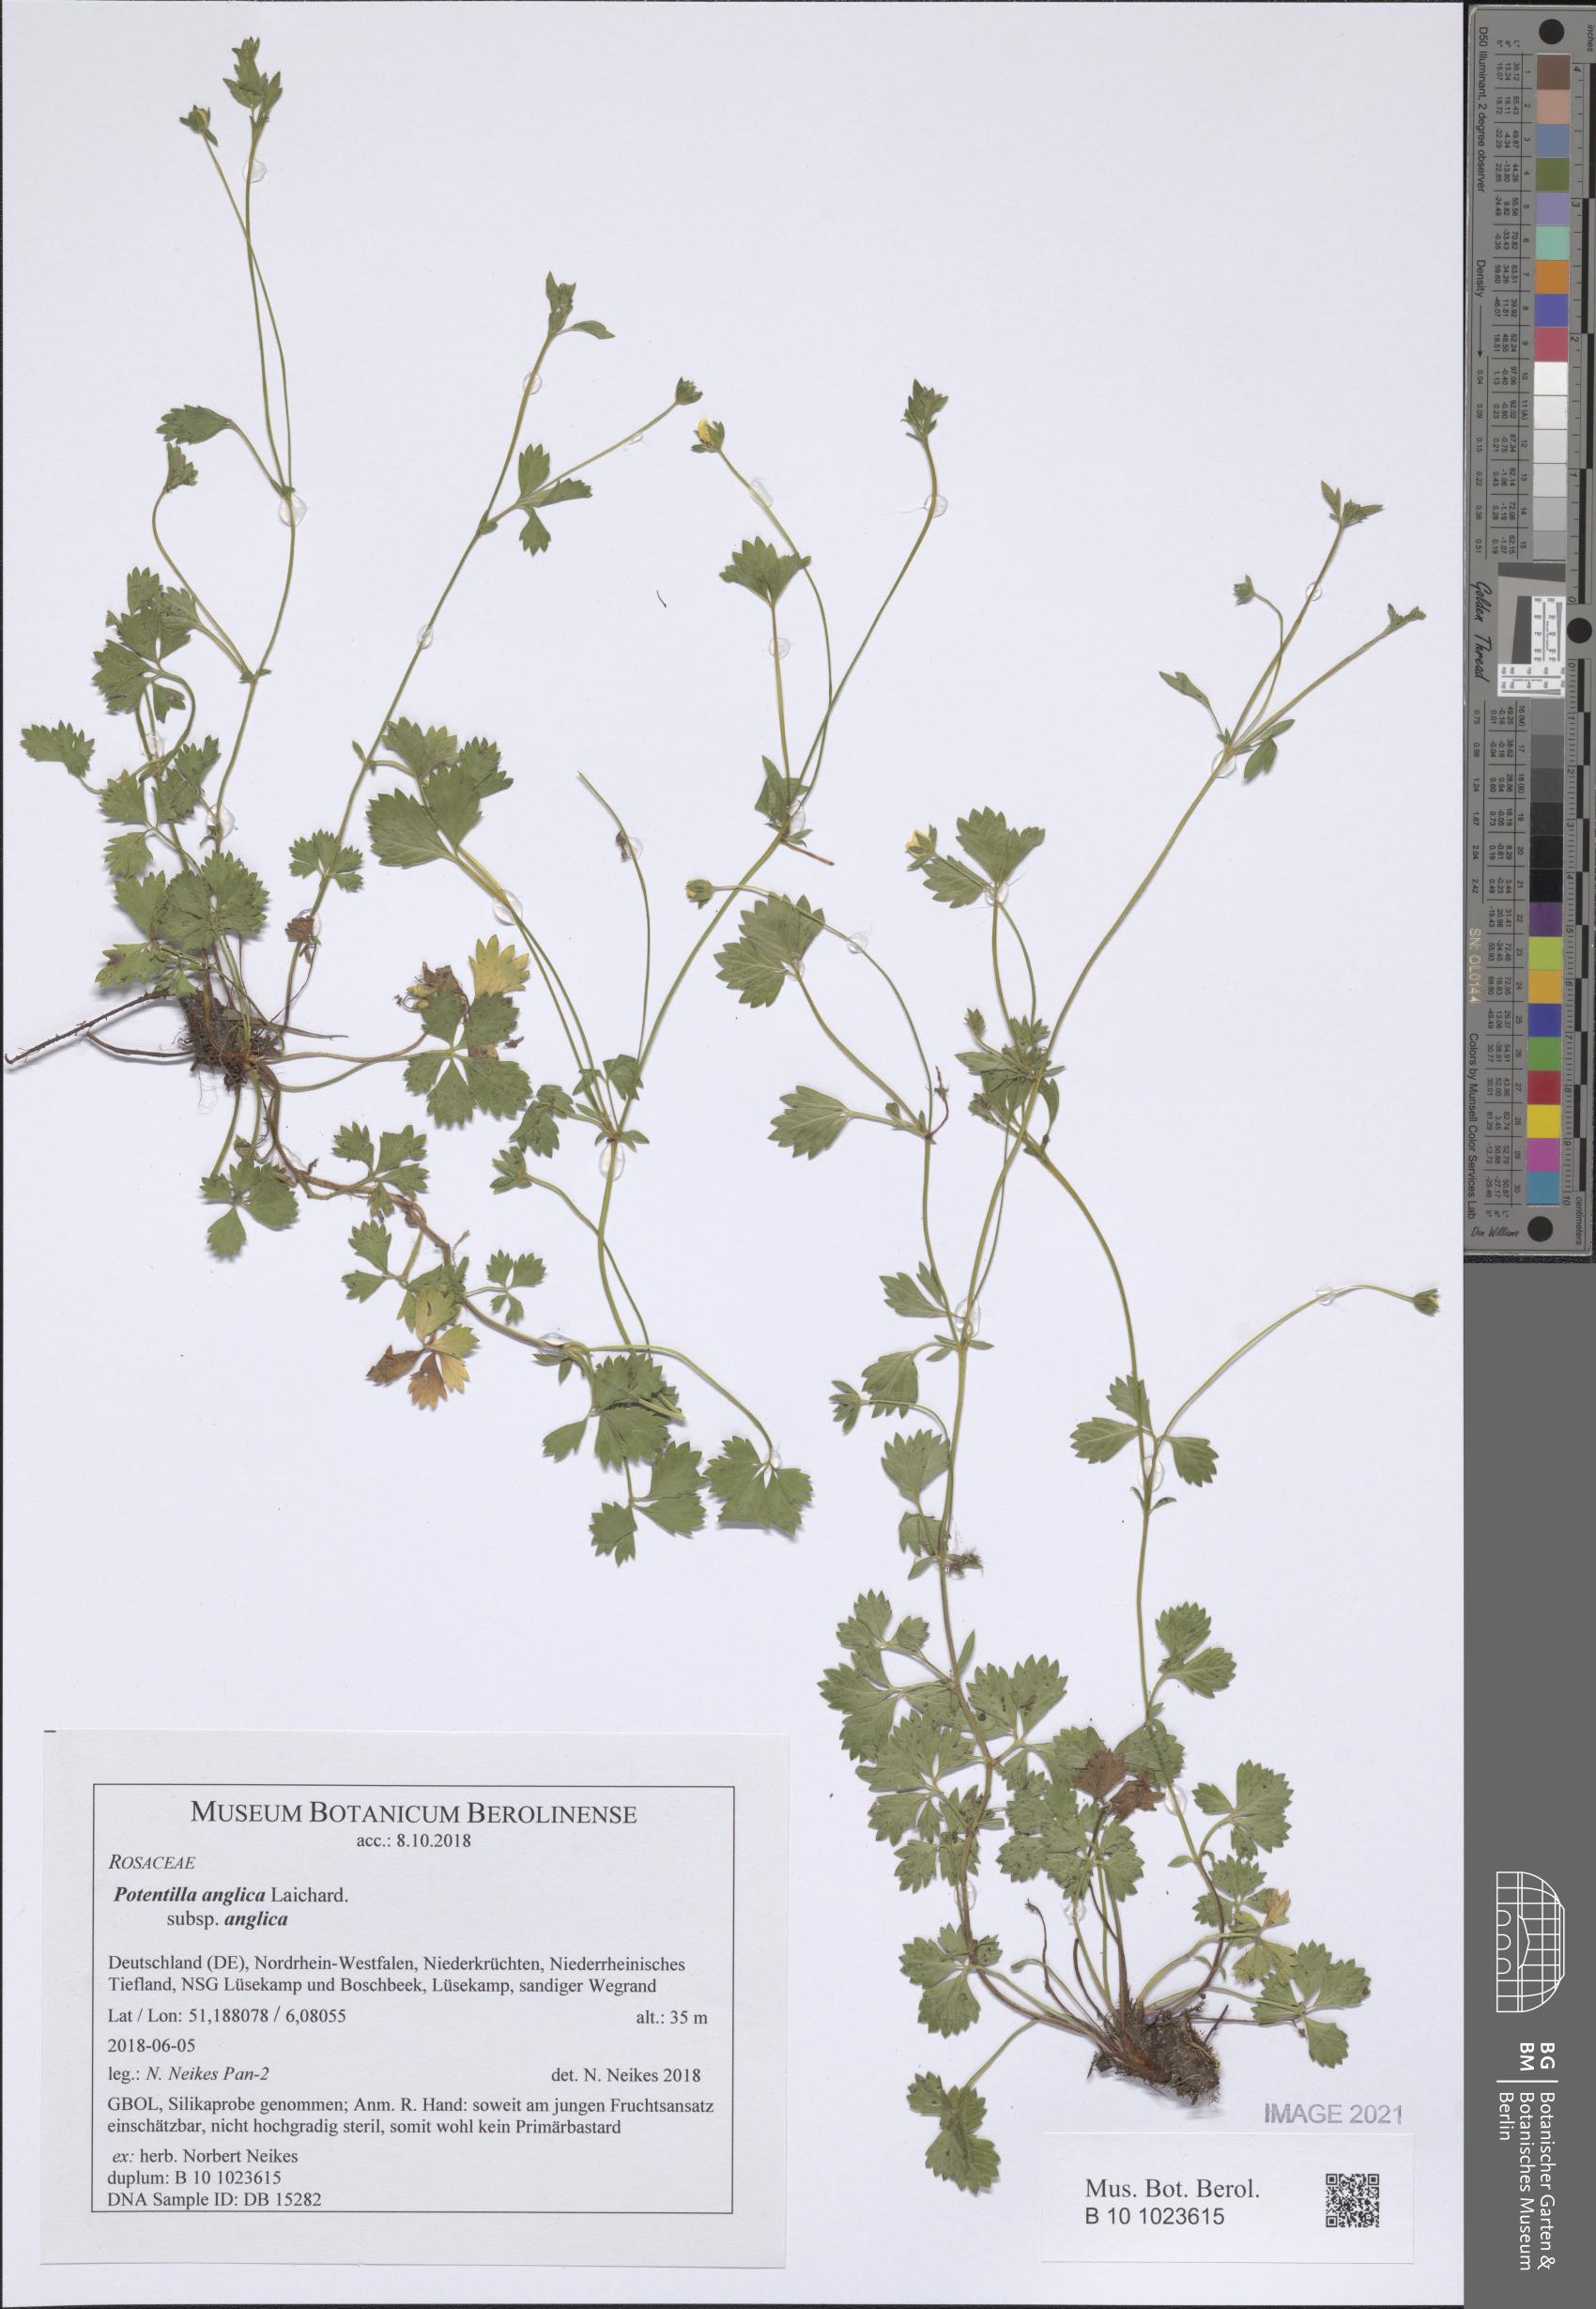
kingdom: Plantae
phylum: Tracheophyta
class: Magnoliopsida
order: Rosales
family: Rosaceae
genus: Potentilla
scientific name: Potentilla anglica
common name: Trailing tormentil
